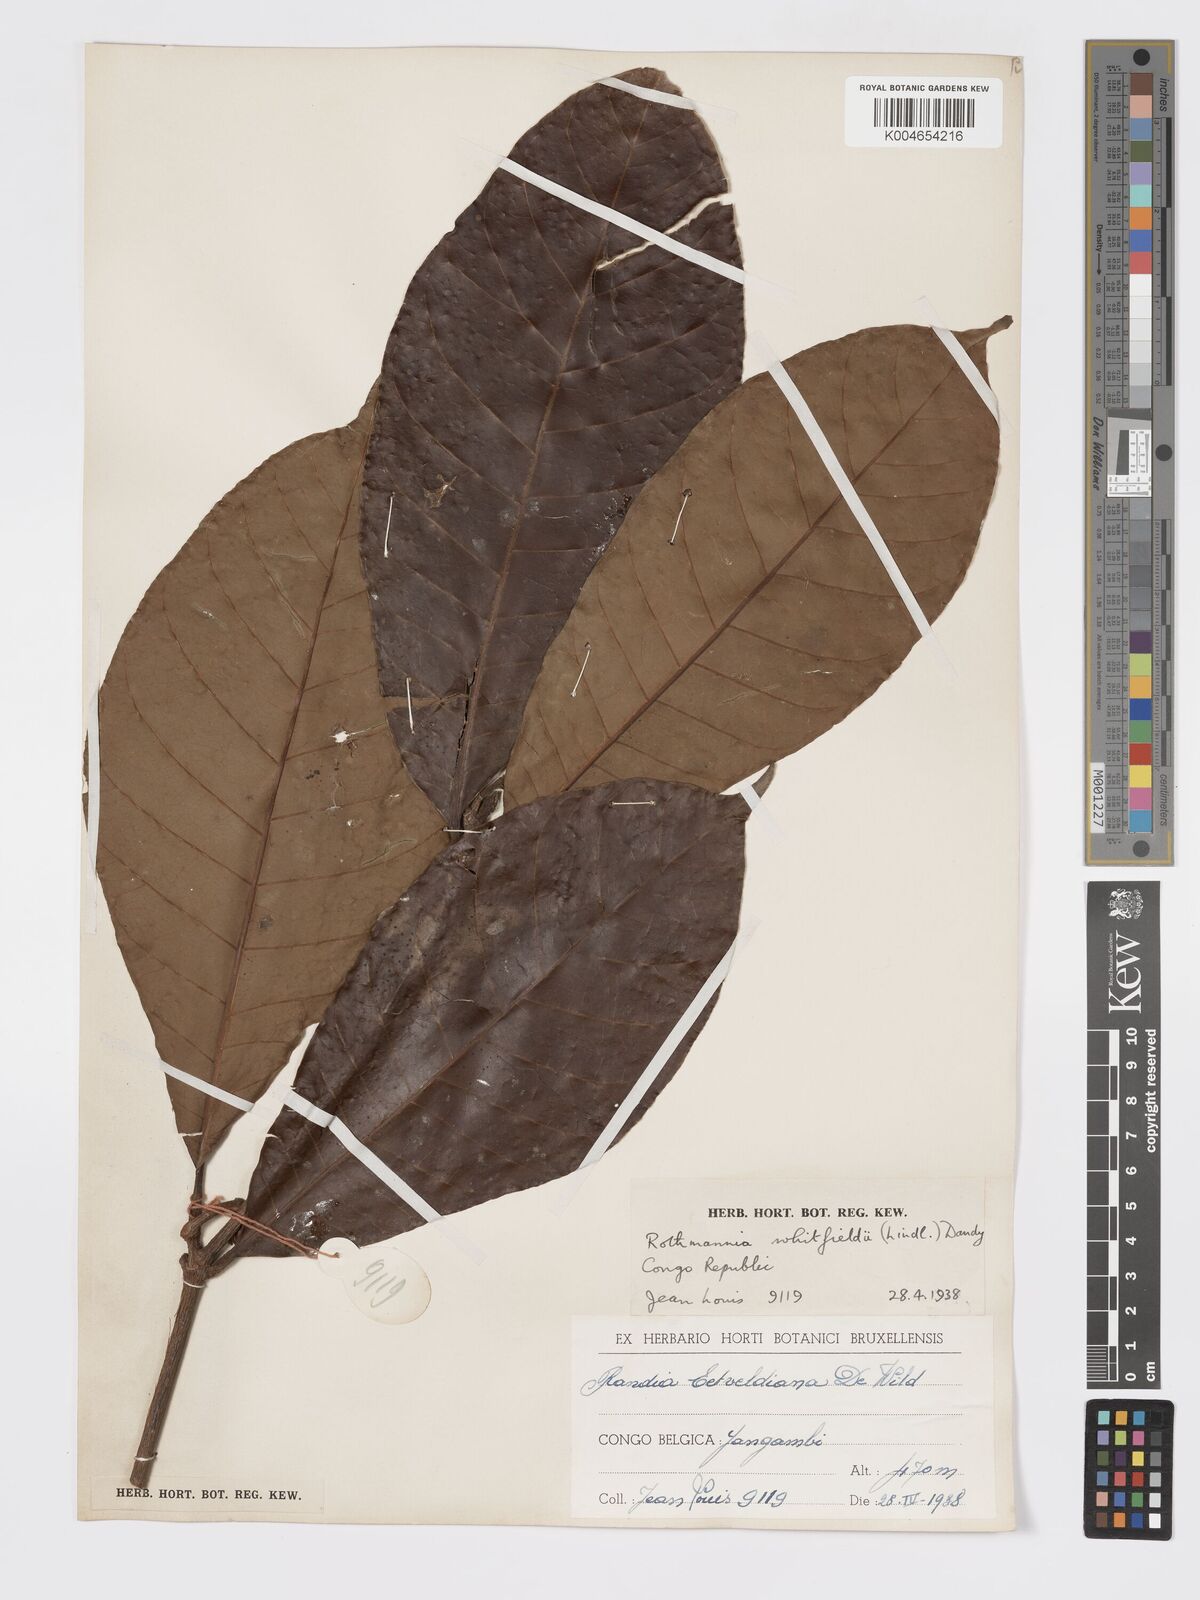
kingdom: Plantae
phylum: Tracheophyta
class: Magnoliopsida
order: Gentianales
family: Rubiaceae
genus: Rothmannia
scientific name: Rothmannia whitfieldii
